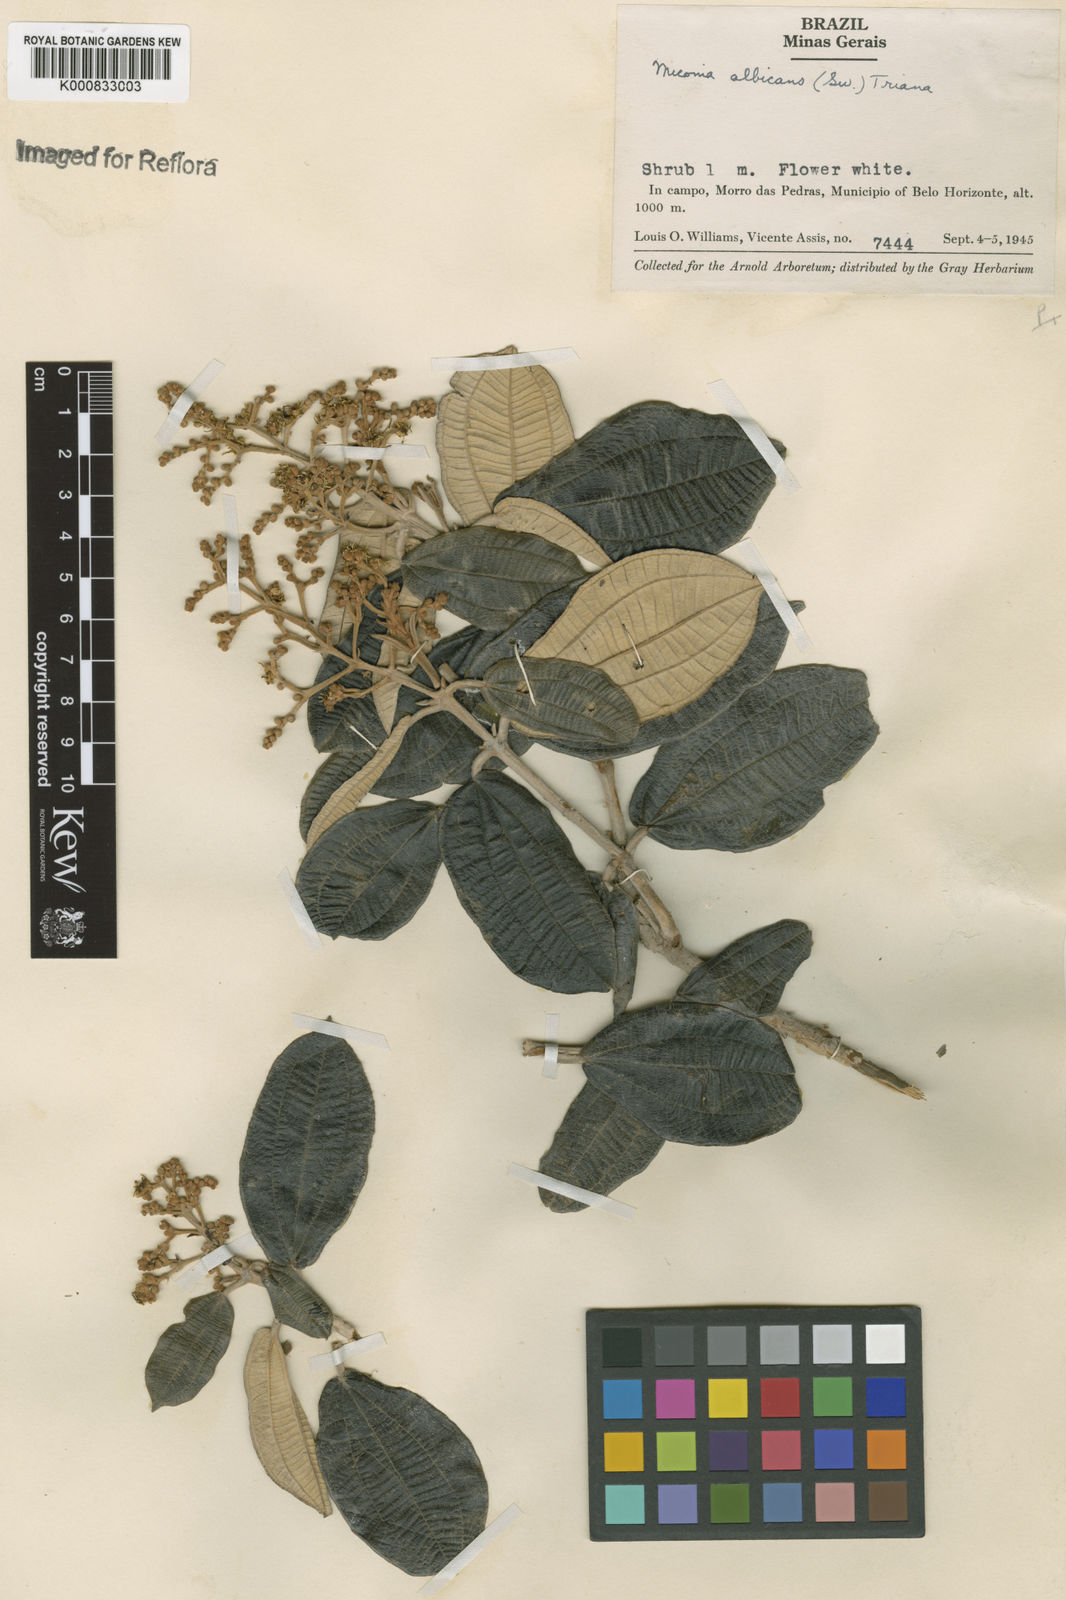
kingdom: Plantae
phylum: Tracheophyta
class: Magnoliopsida
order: Myrtales
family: Melastomataceae
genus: Miconia
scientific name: Miconia albicans
